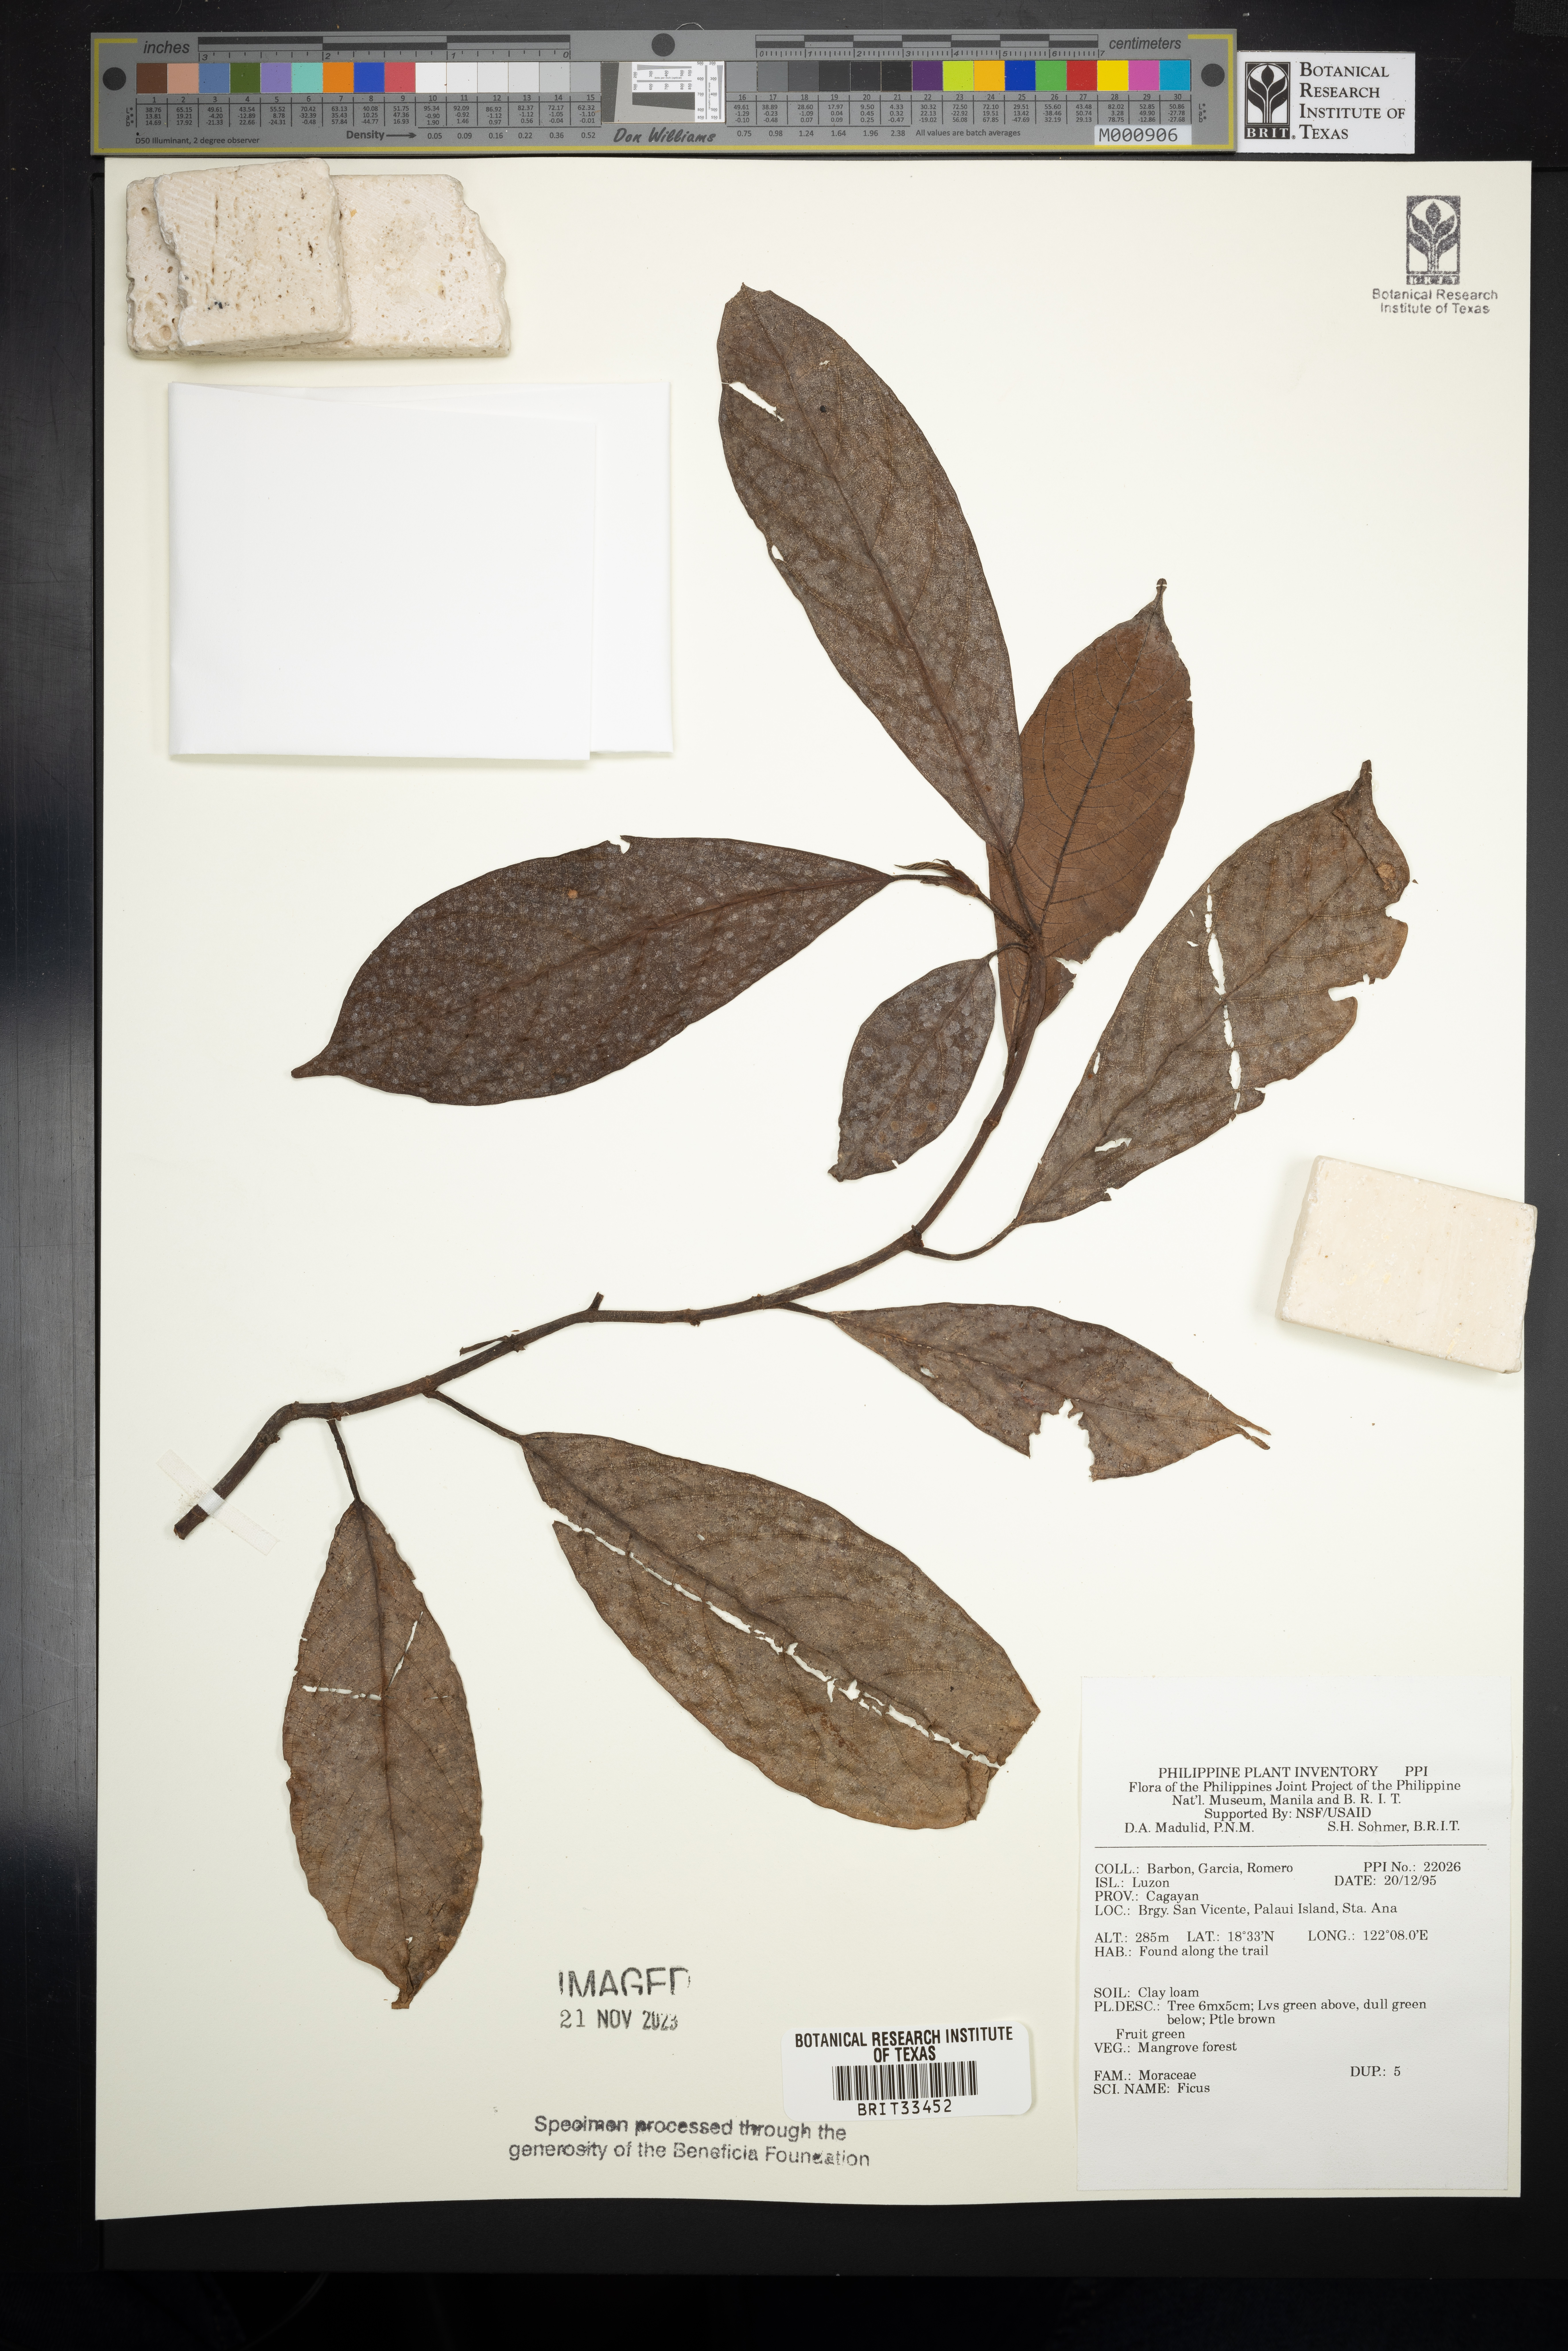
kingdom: Plantae
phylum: Tracheophyta
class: Magnoliopsida
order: Rosales
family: Moraceae
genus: Ficus
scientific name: Ficus
